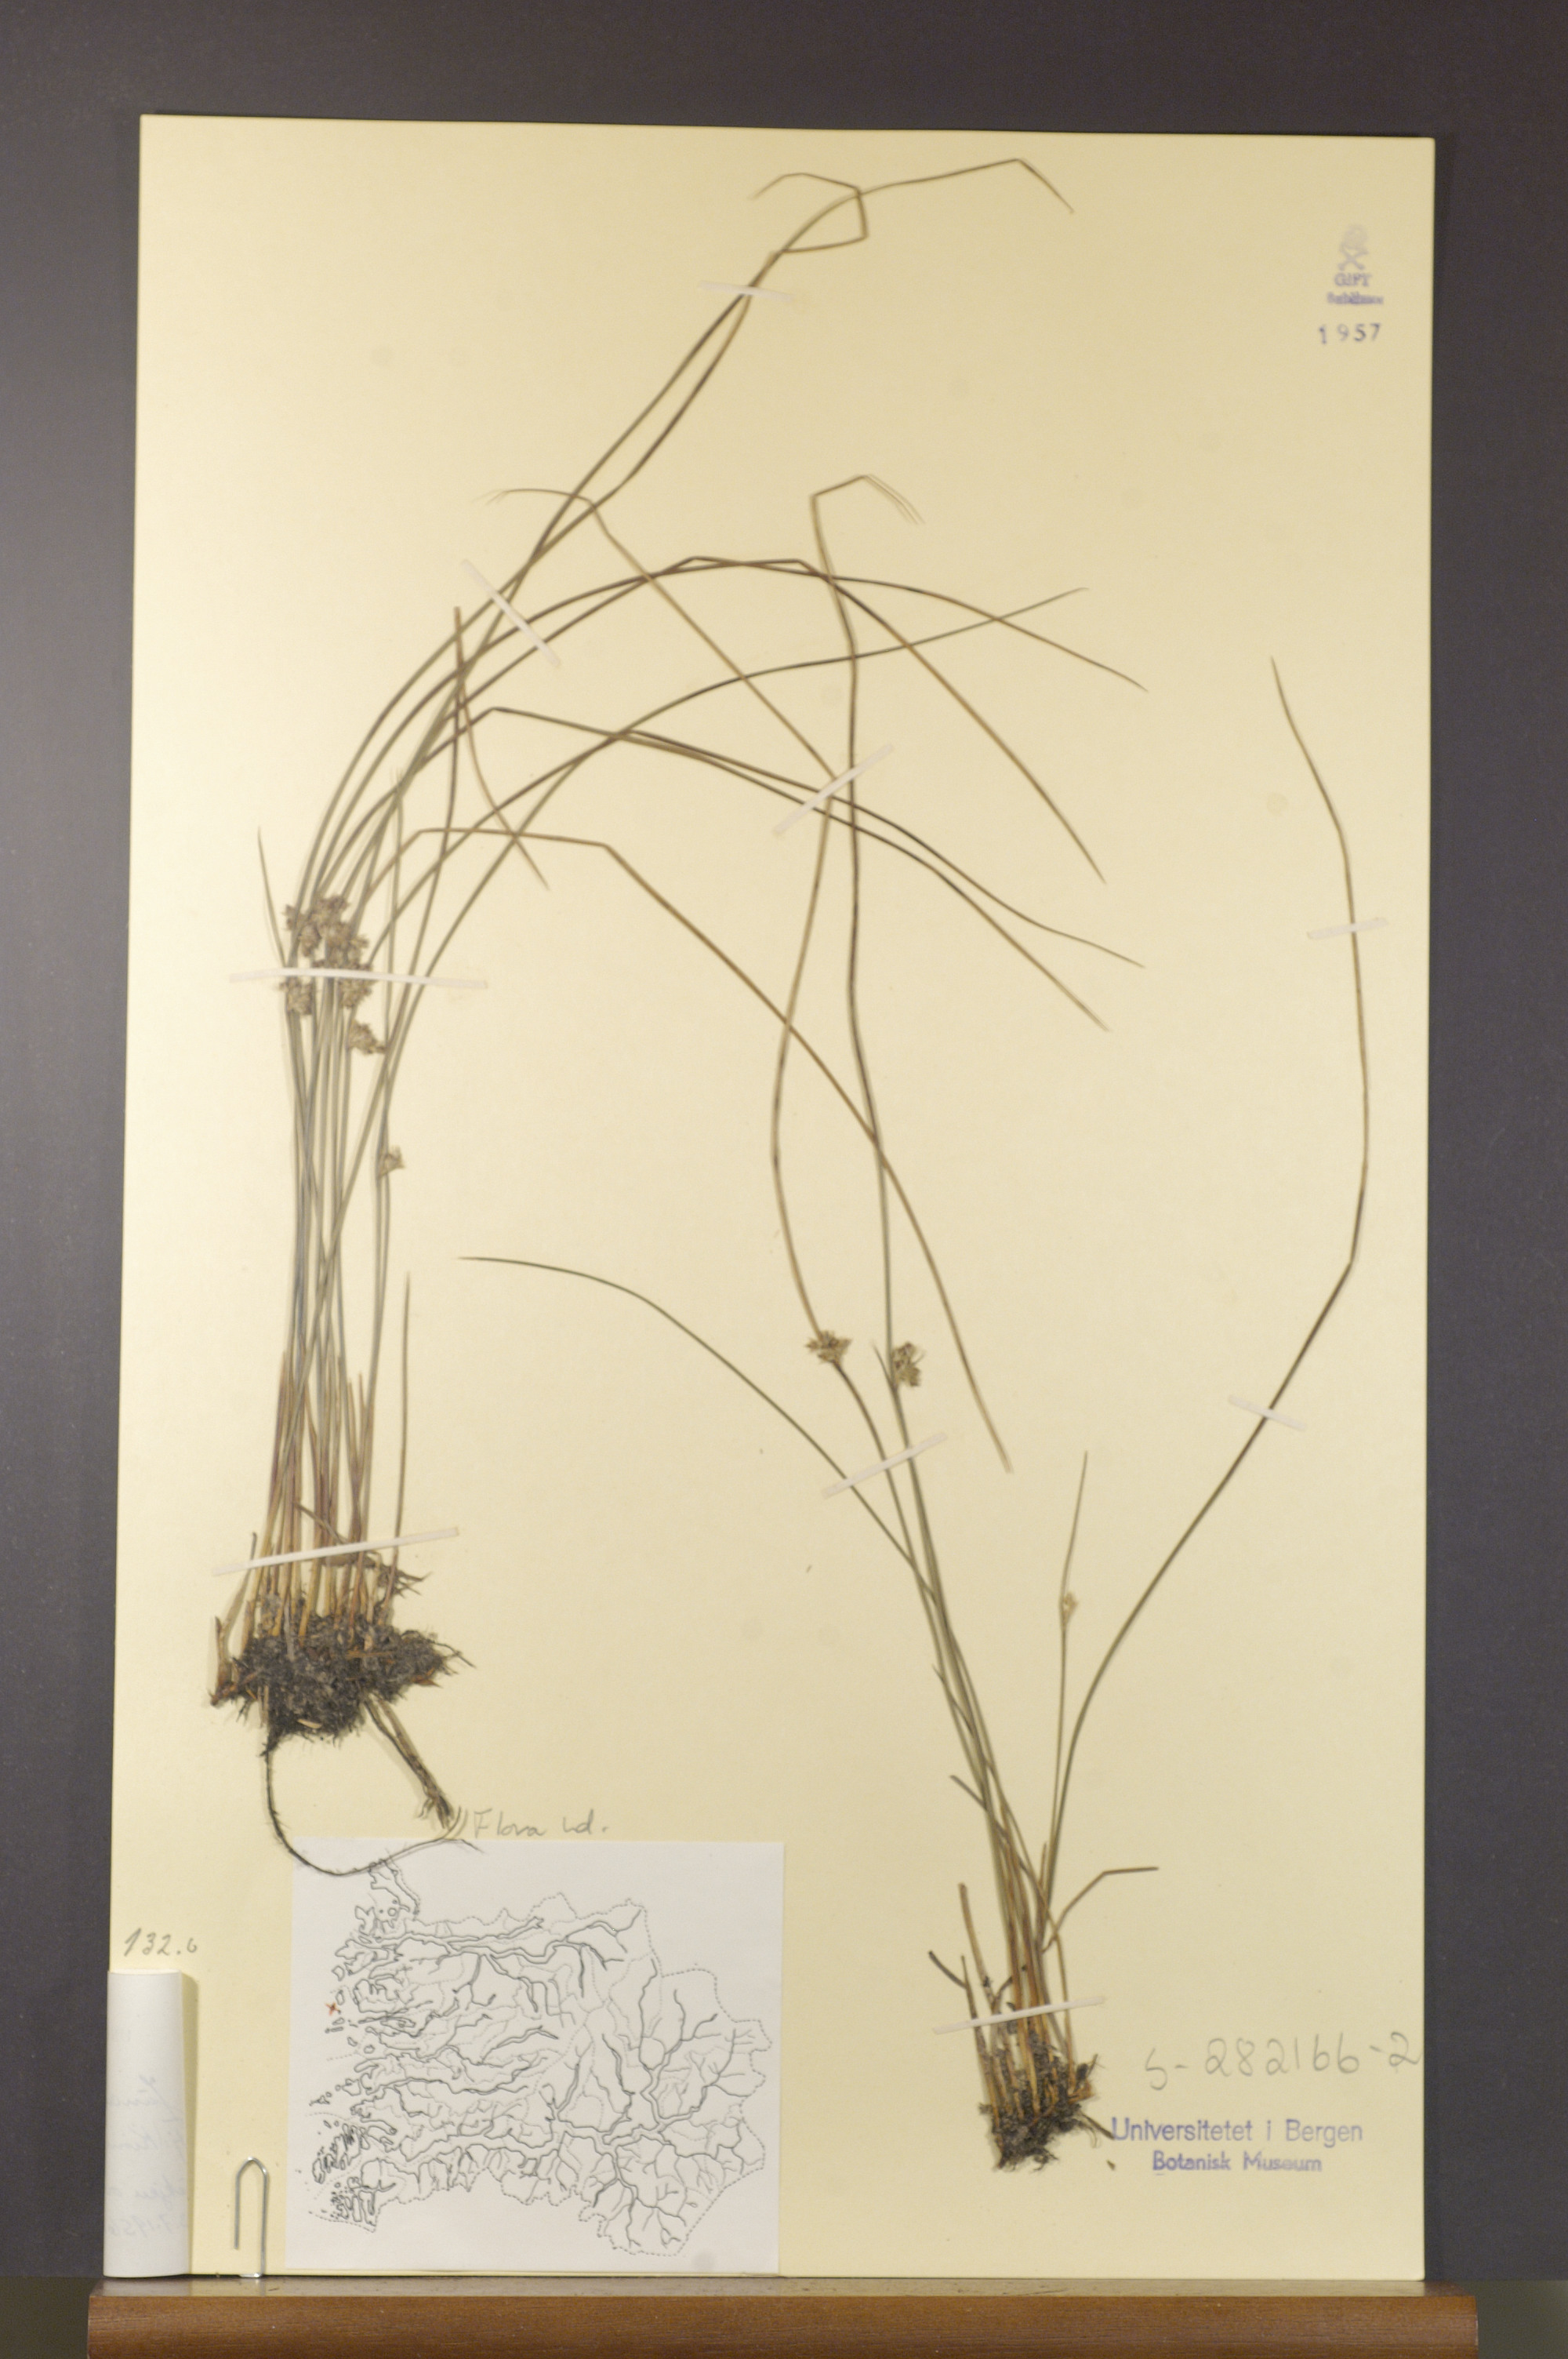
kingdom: Plantae
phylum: Tracheophyta
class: Liliopsida
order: Poales
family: Juncaceae
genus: Juncus
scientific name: Juncus filiformis
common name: Thread rush
